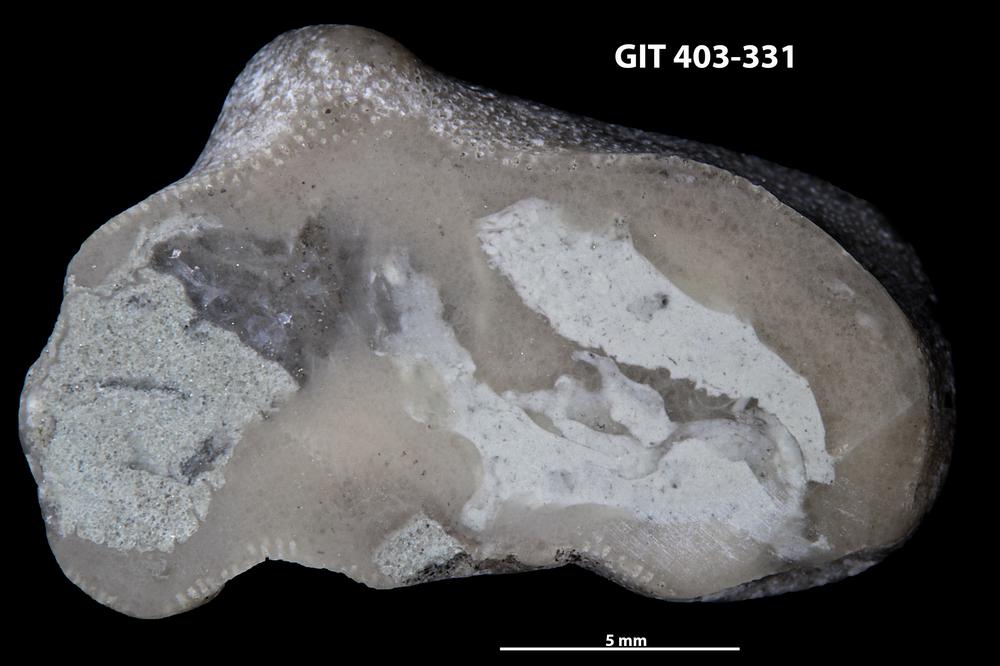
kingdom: Animalia
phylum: Bryozoa
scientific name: Bryozoa
